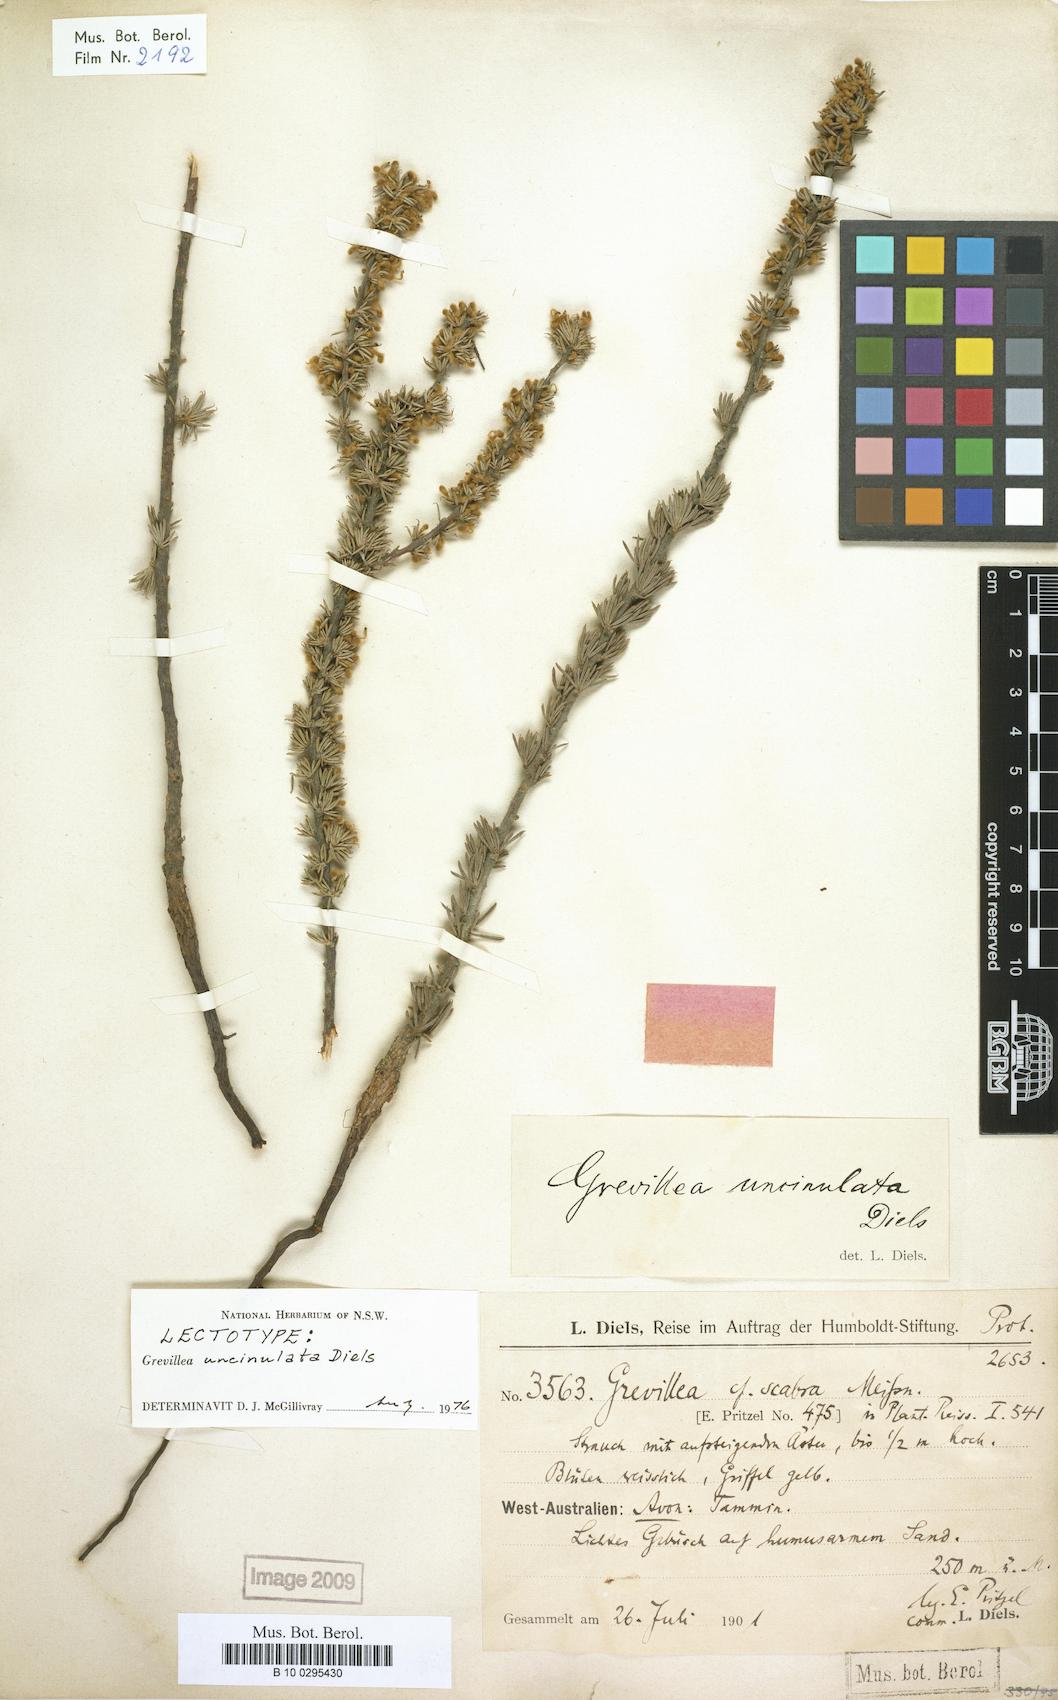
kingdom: Plantae
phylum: Tracheophyta
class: Magnoliopsida
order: Proteales
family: Proteaceae
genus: Grevillea
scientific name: Grevillea uncinulata
